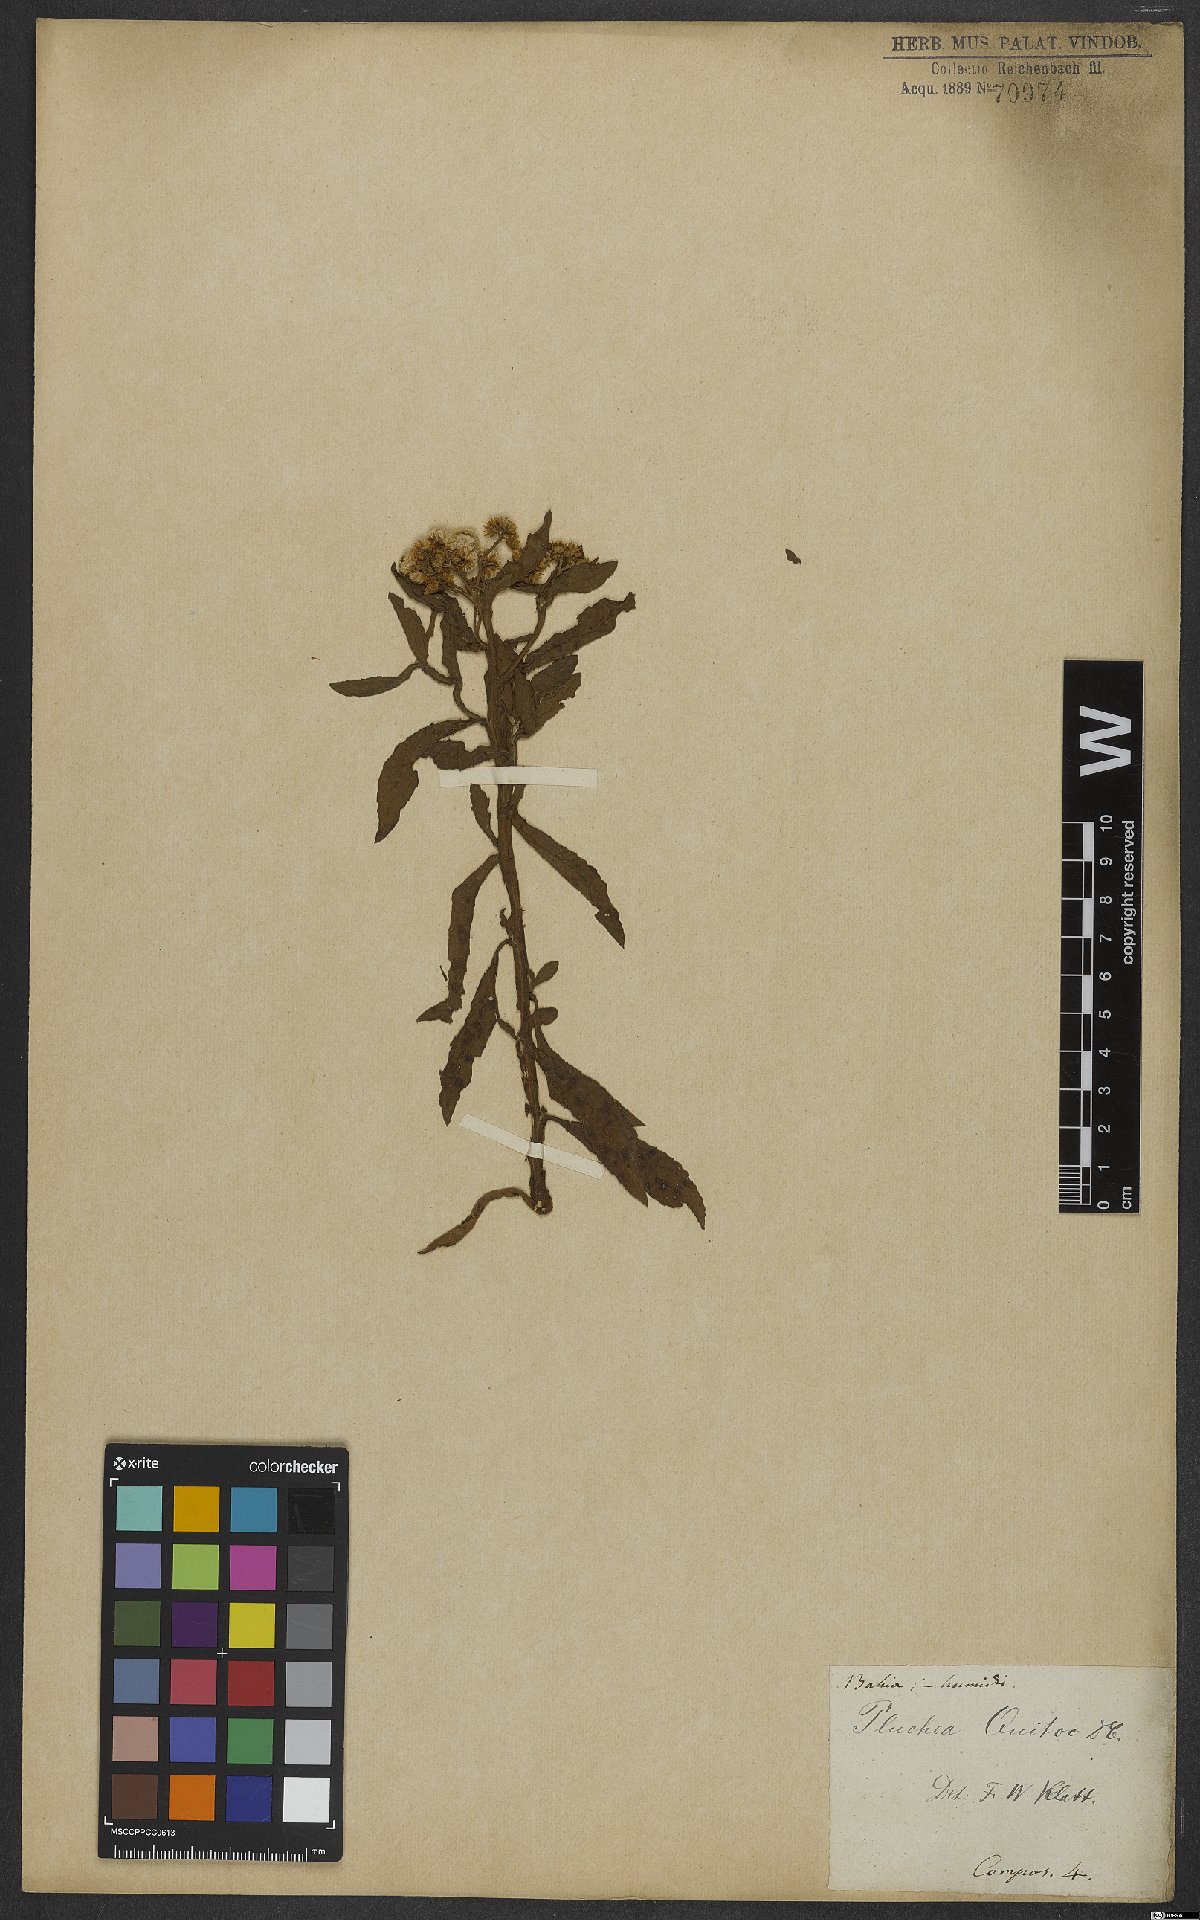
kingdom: Plantae
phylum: Tracheophyta
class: Magnoliopsida
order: Asterales
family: Asteraceae
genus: Pluchea
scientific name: Pluchea sagittalis
